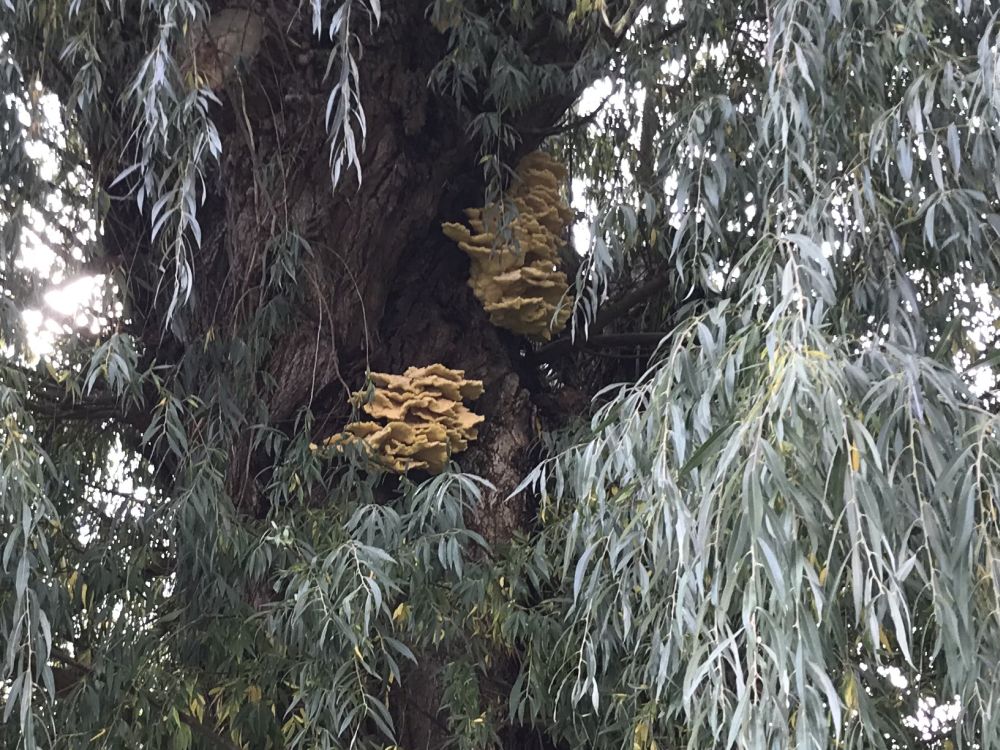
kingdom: Fungi
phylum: Basidiomycota
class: Agaricomycetes
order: Polyporales
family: Laetiporaceae
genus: Laetiporus
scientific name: Laetiporus sulphureus
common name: svovlporesvamp
